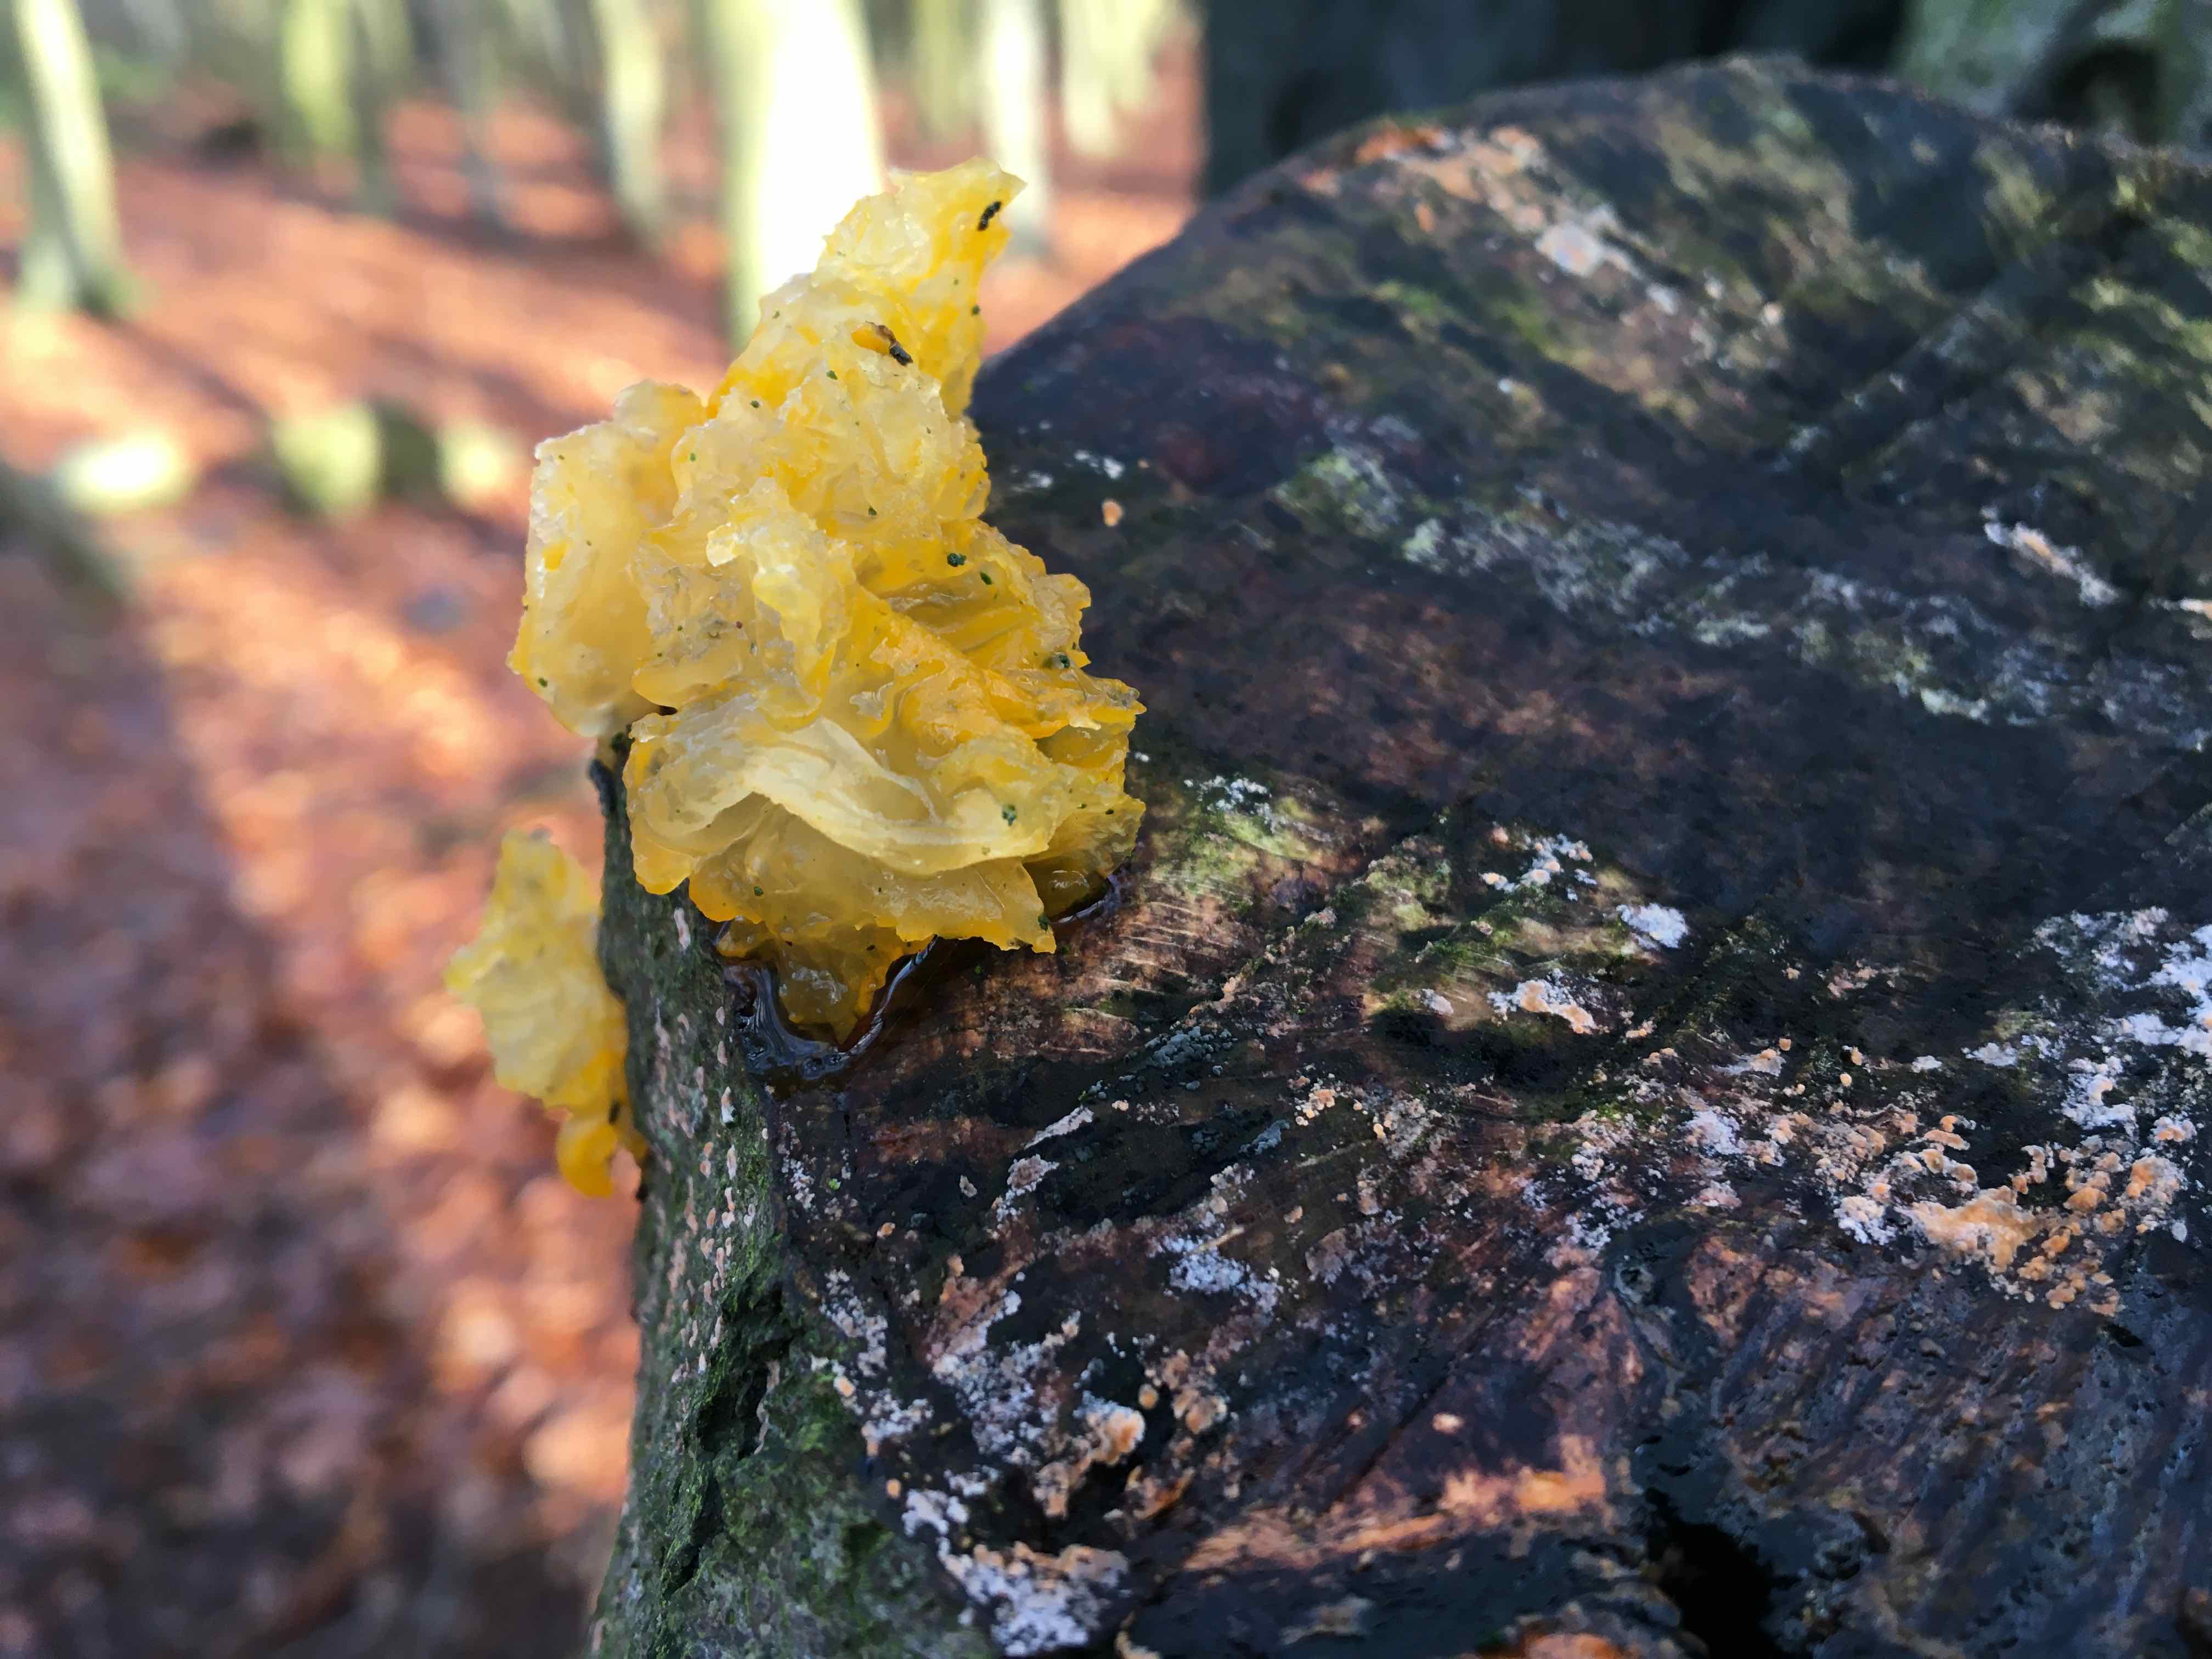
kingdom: Fungi
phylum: Basidiomycota
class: Tremellomycetes
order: Tremellales
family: Tremellaceae
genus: Tremella
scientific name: Tremella mesenterica
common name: gul bævresvamp
